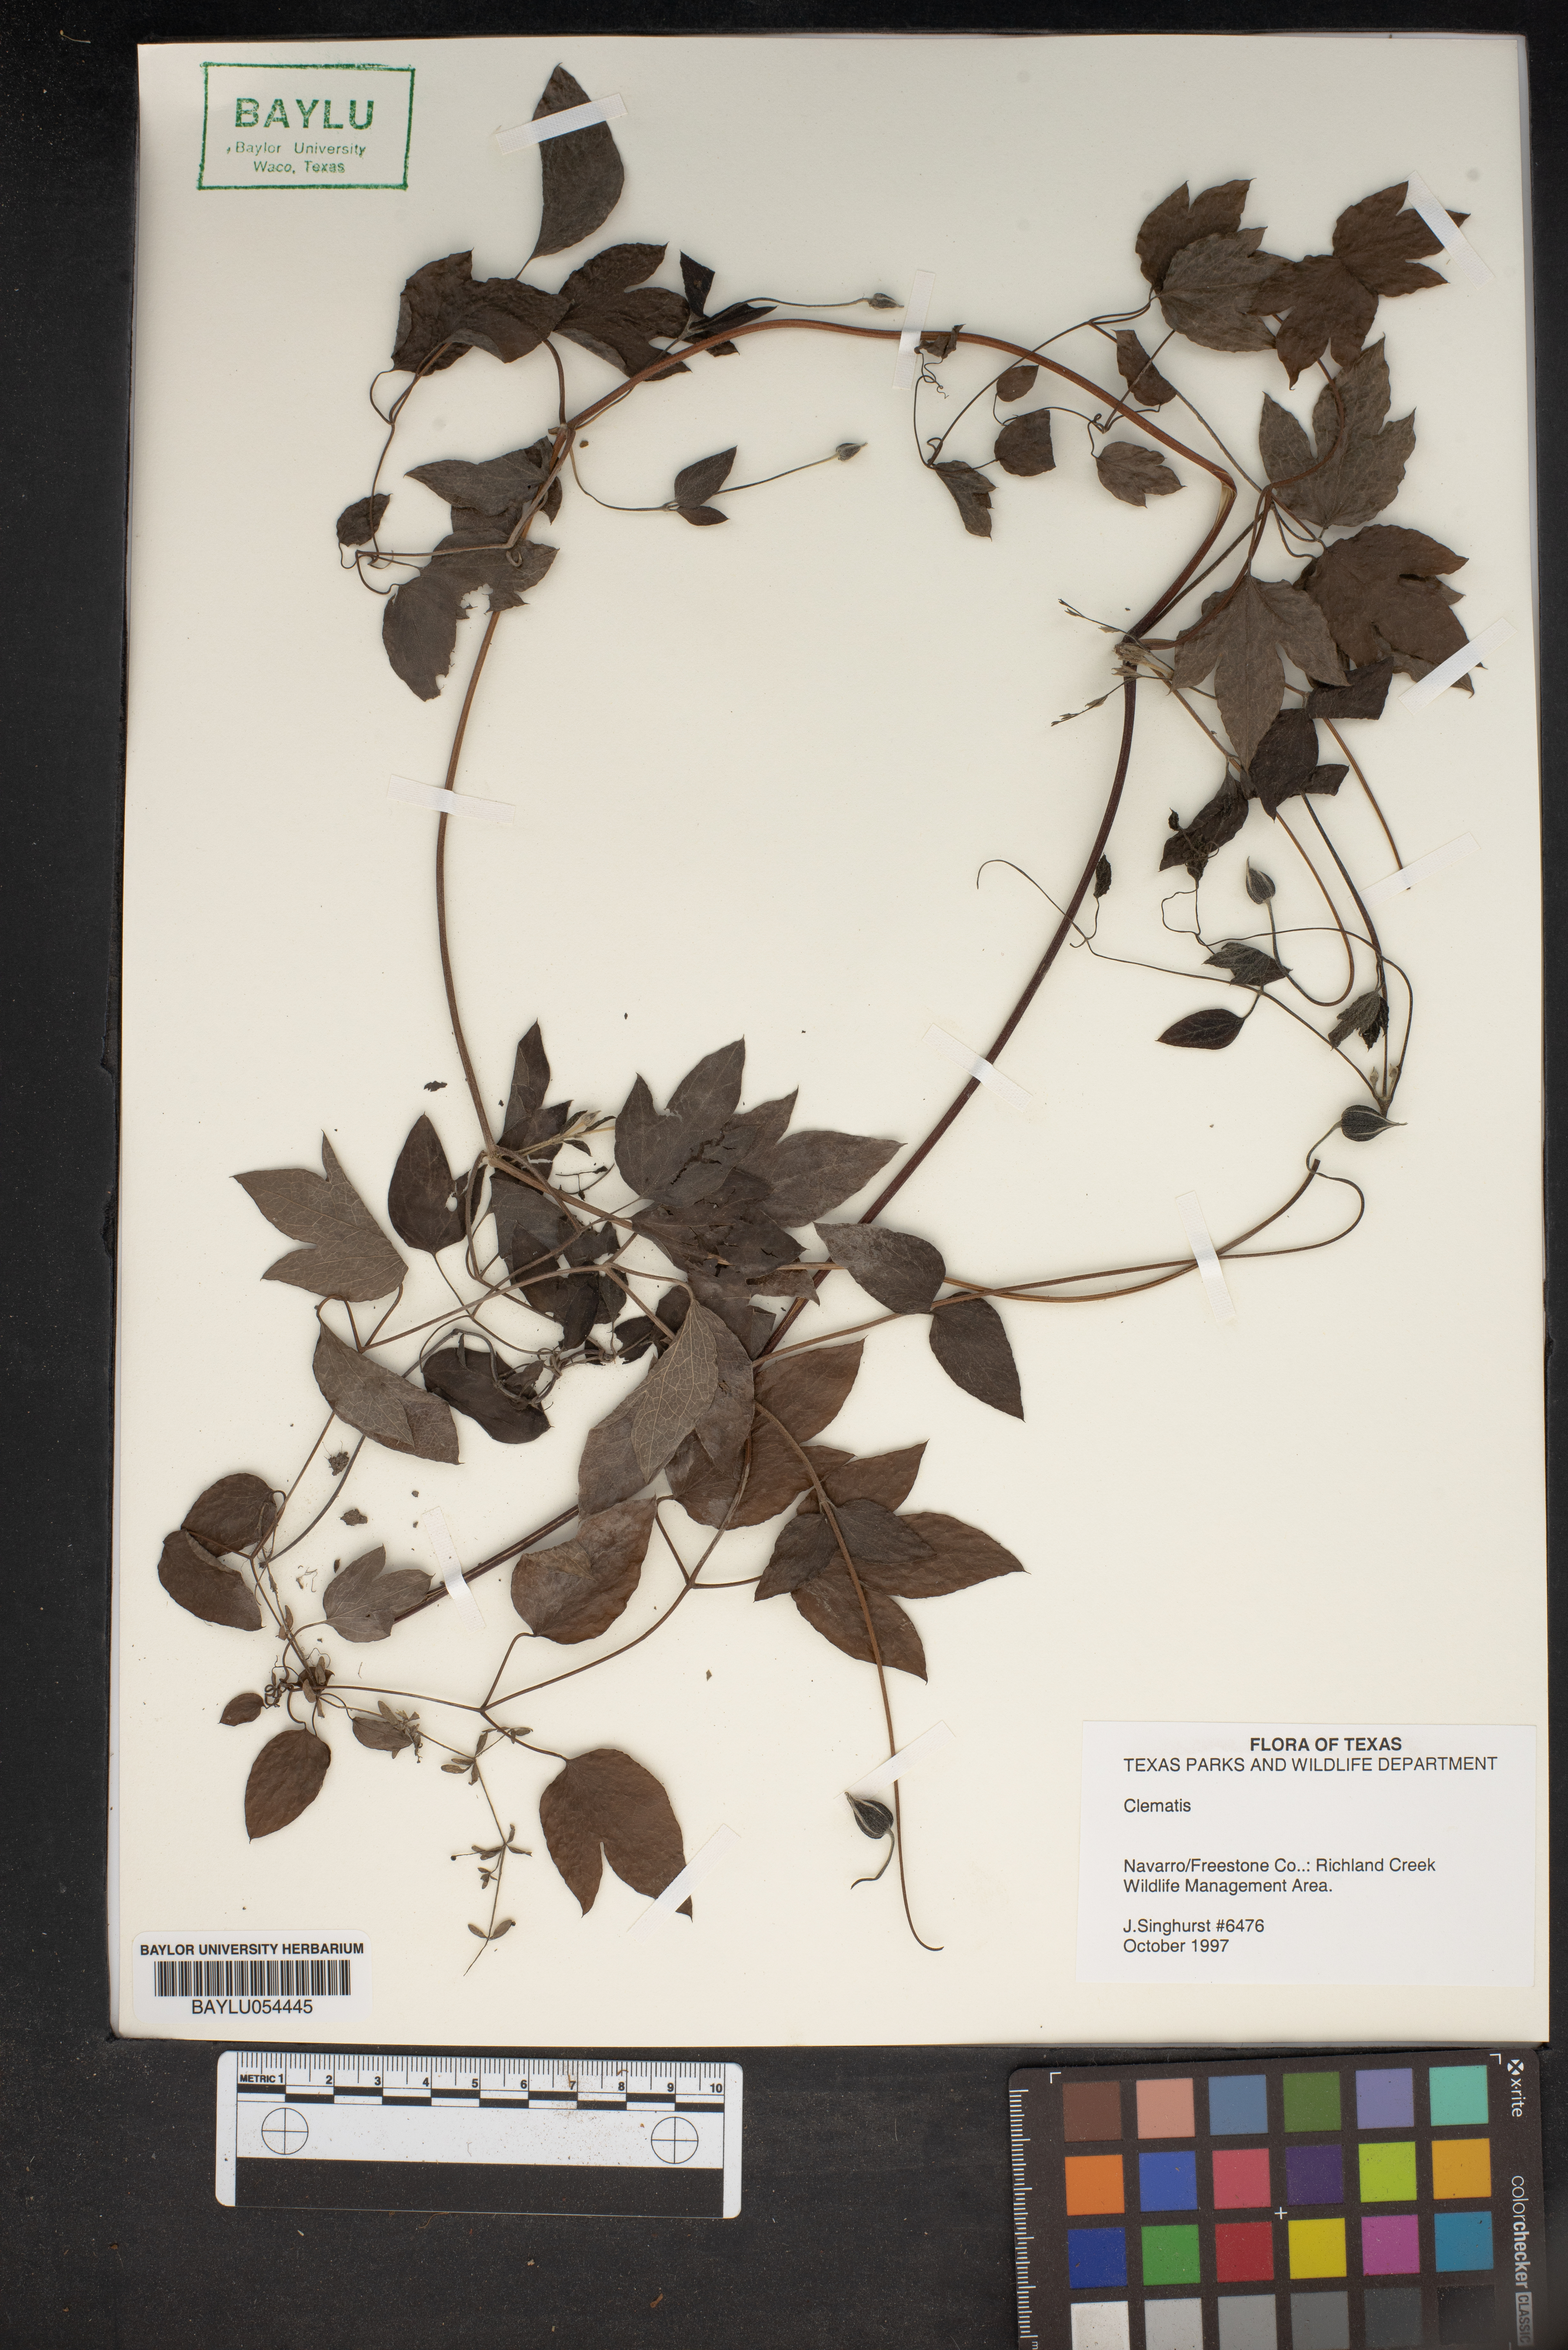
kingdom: Plantae
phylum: Tracheophyta
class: Magnoliopsida
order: Ranunculales
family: Ranunculaceae
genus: Clematis
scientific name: Clematis
